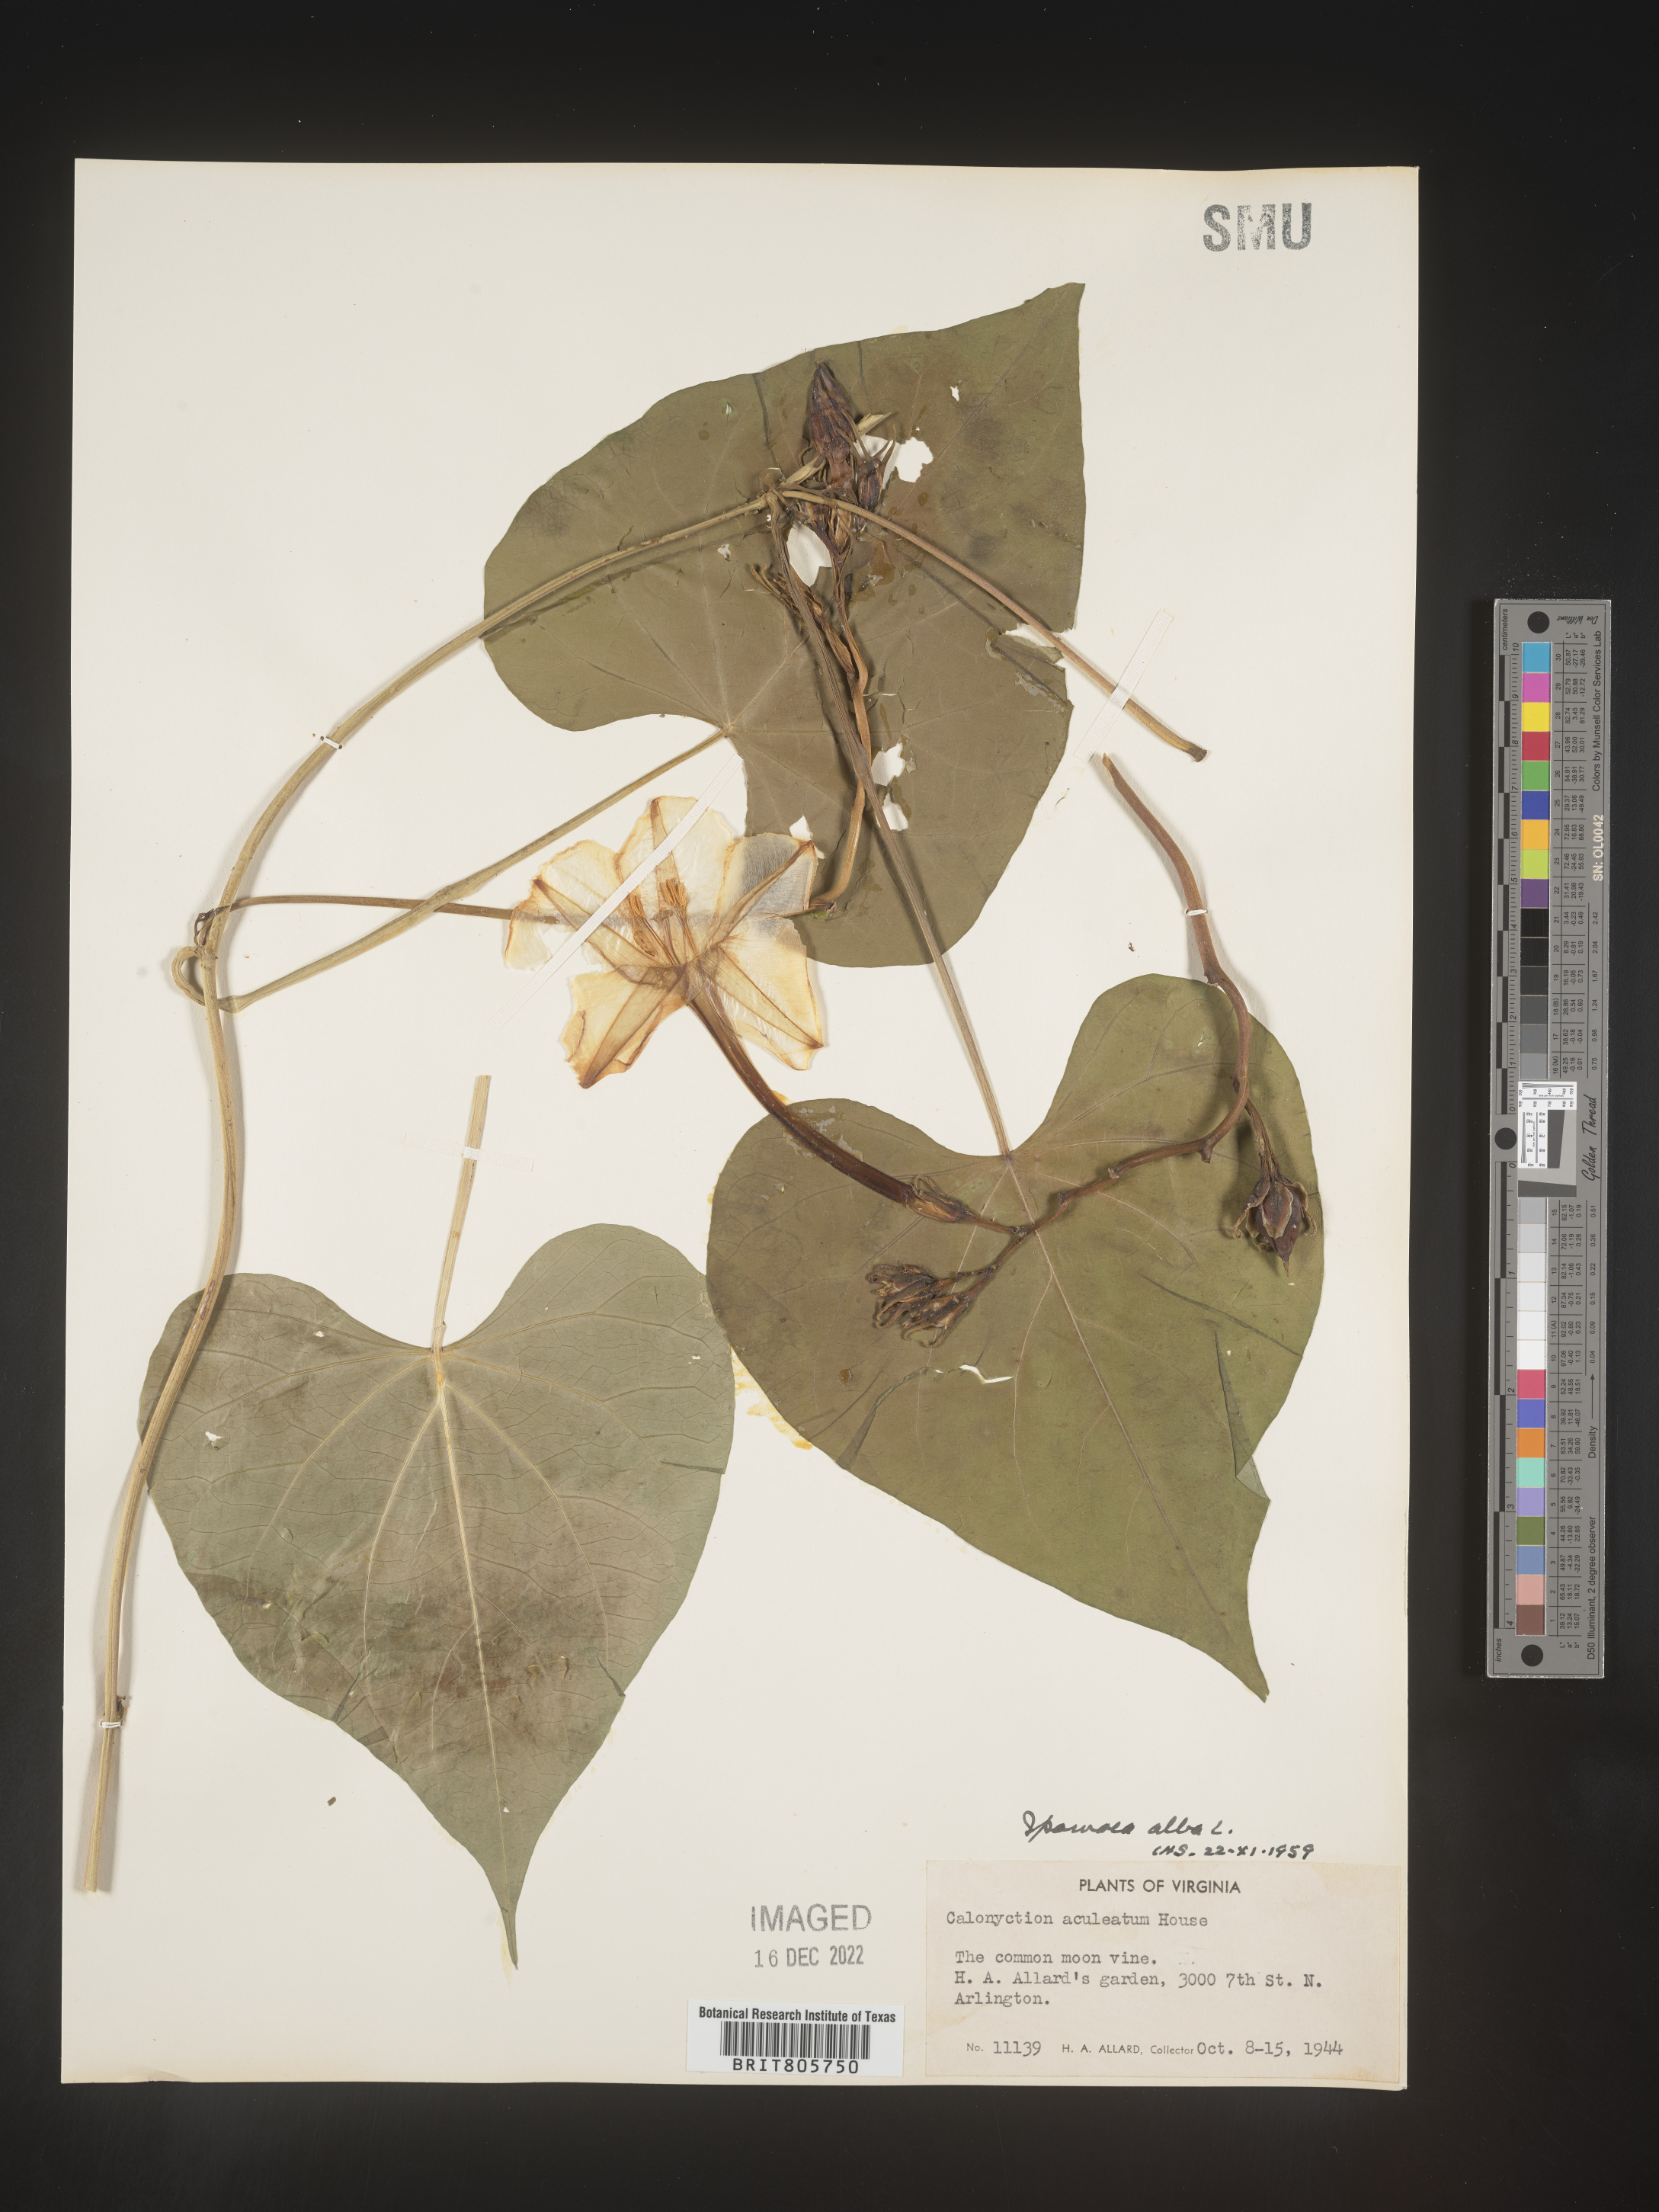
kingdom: Plantae
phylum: Tracheophyta
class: Magnoliopsida
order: Solanales
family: Convolvulaceae
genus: Ipomoea
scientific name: Ipomoea alba
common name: Moonflower
